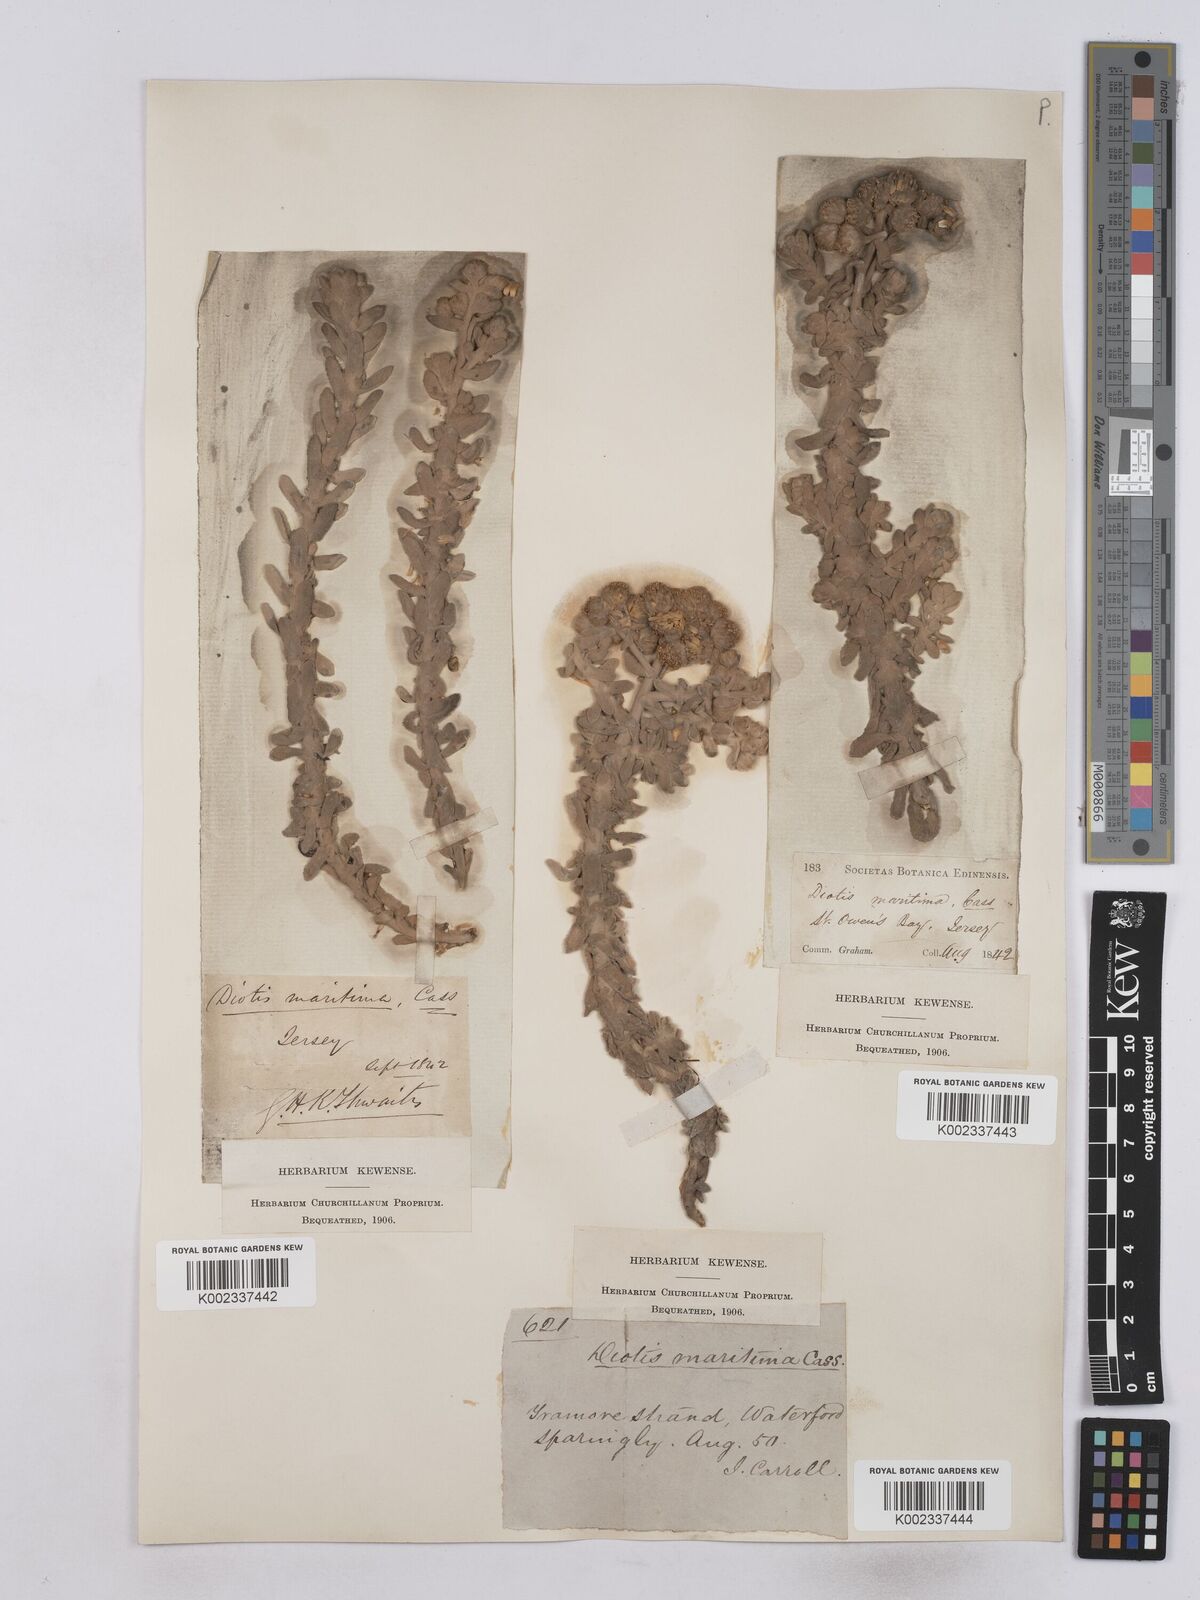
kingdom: Plantae
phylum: Tracheophyta
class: Magnoliopsida
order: Asterales
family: Asteraceae
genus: Achillea
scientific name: Achillea maritima
